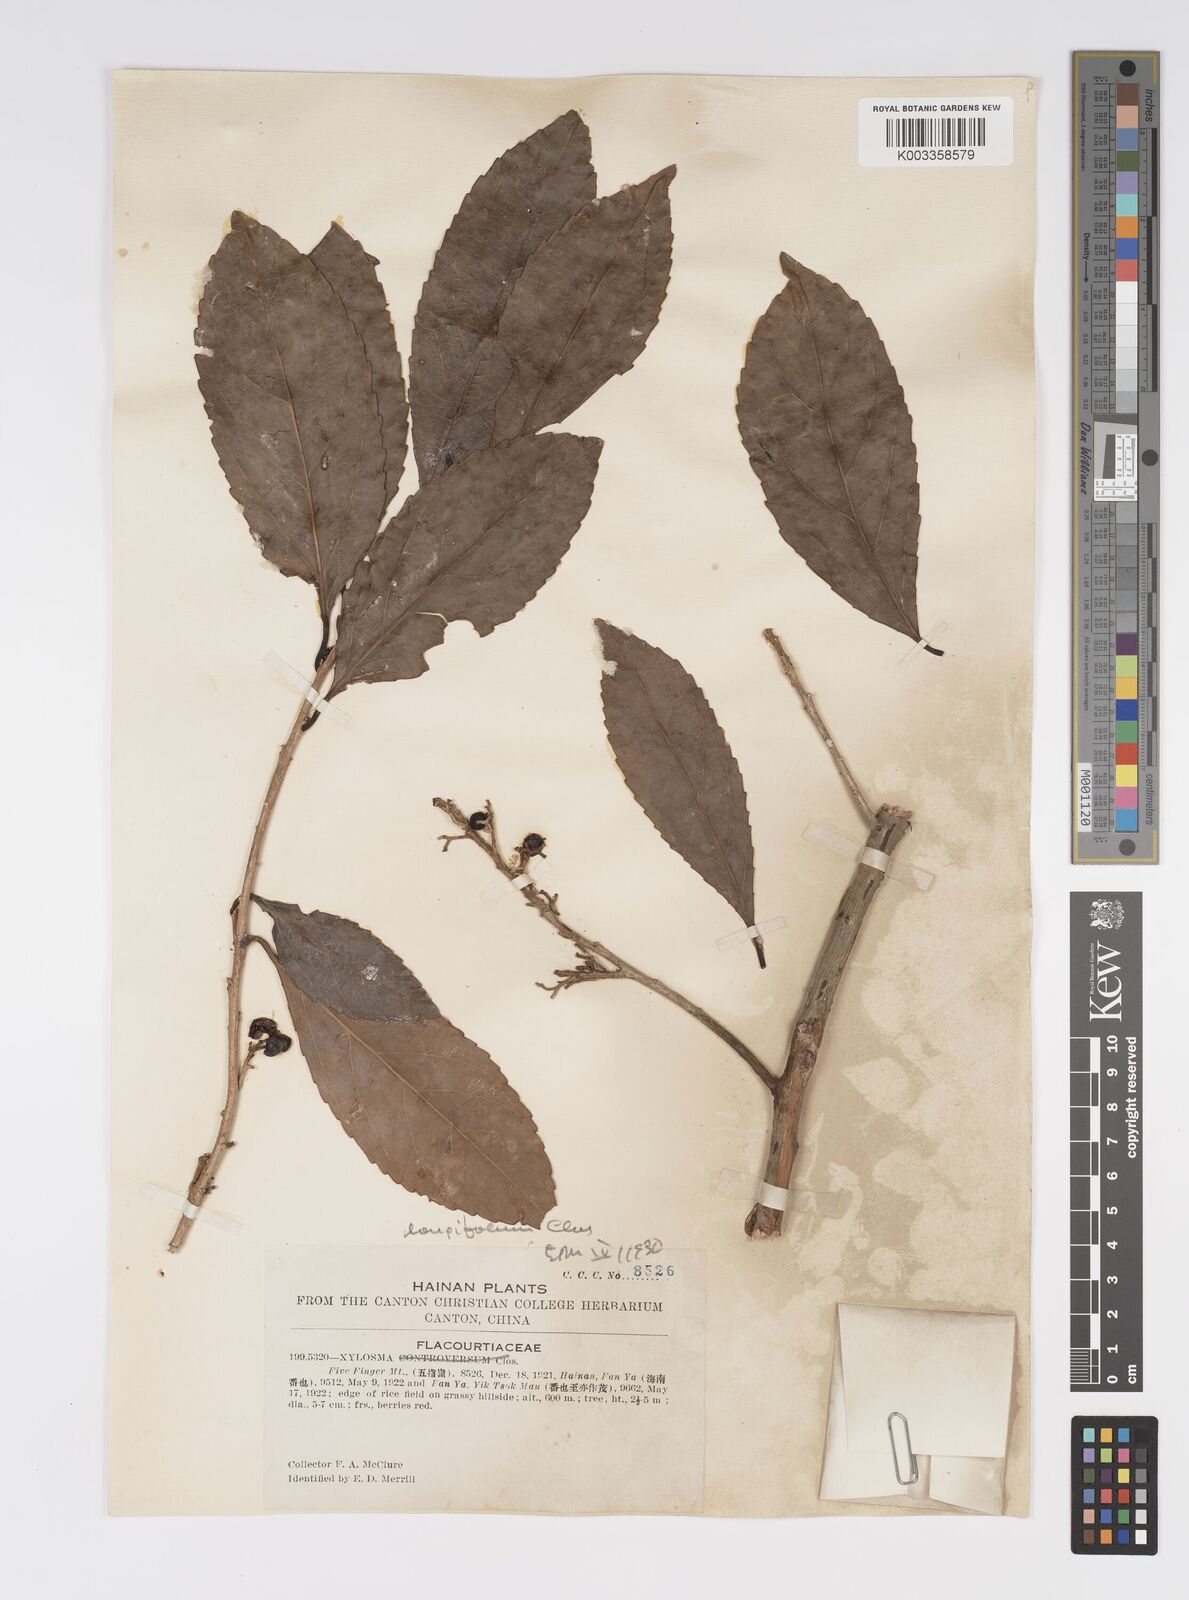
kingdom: Plantae
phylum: Tracheophyta
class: Magnoliopsida
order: Malpighiales
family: Salicaceae
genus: Xylosma
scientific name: Xylosma longifolia
